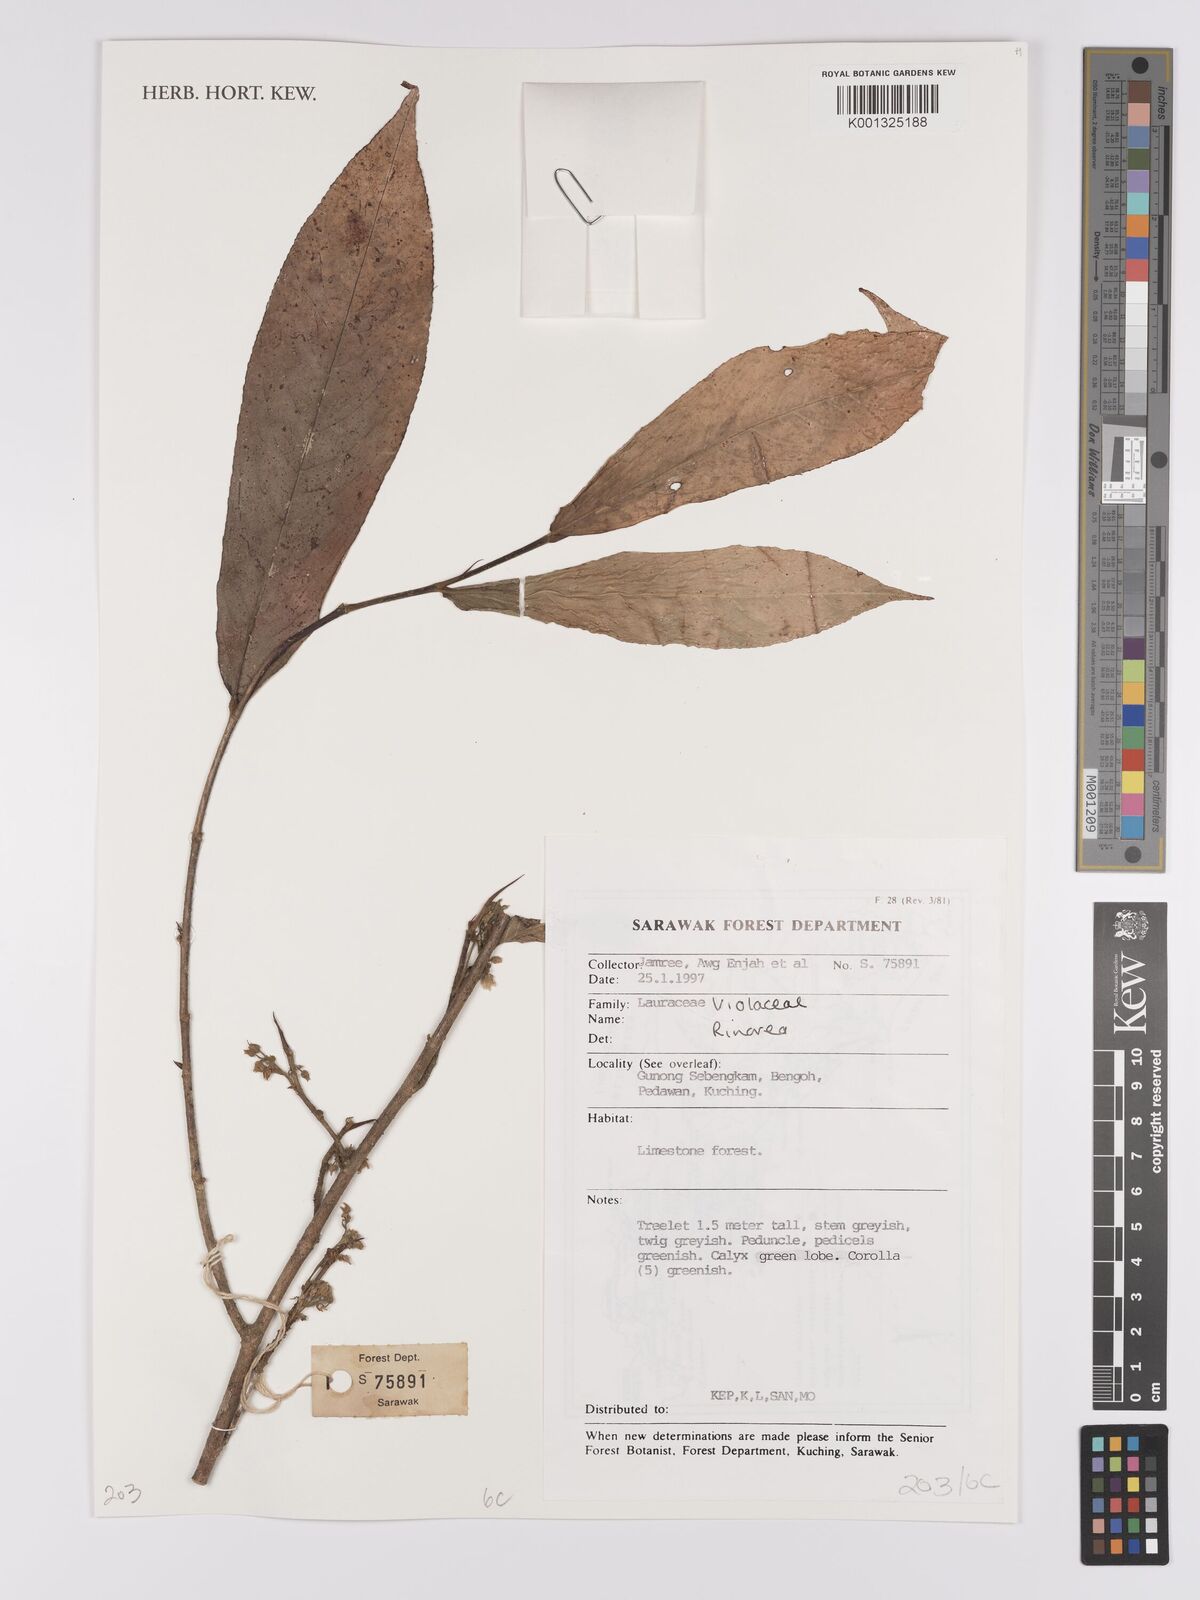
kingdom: Plantae
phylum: Tracheophyta
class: Magnoliopsida
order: Malpighiales
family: Violaceae
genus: Rinorea
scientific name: Rinorea
